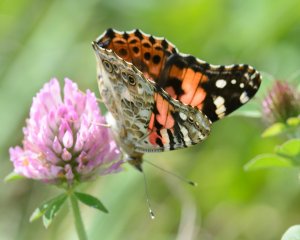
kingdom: Animalia
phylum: Arthropoda
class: Insecta
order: Lepidoptera
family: Nymphalidae
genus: Vanessa
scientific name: Vanessa cardui
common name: Painted Lady
